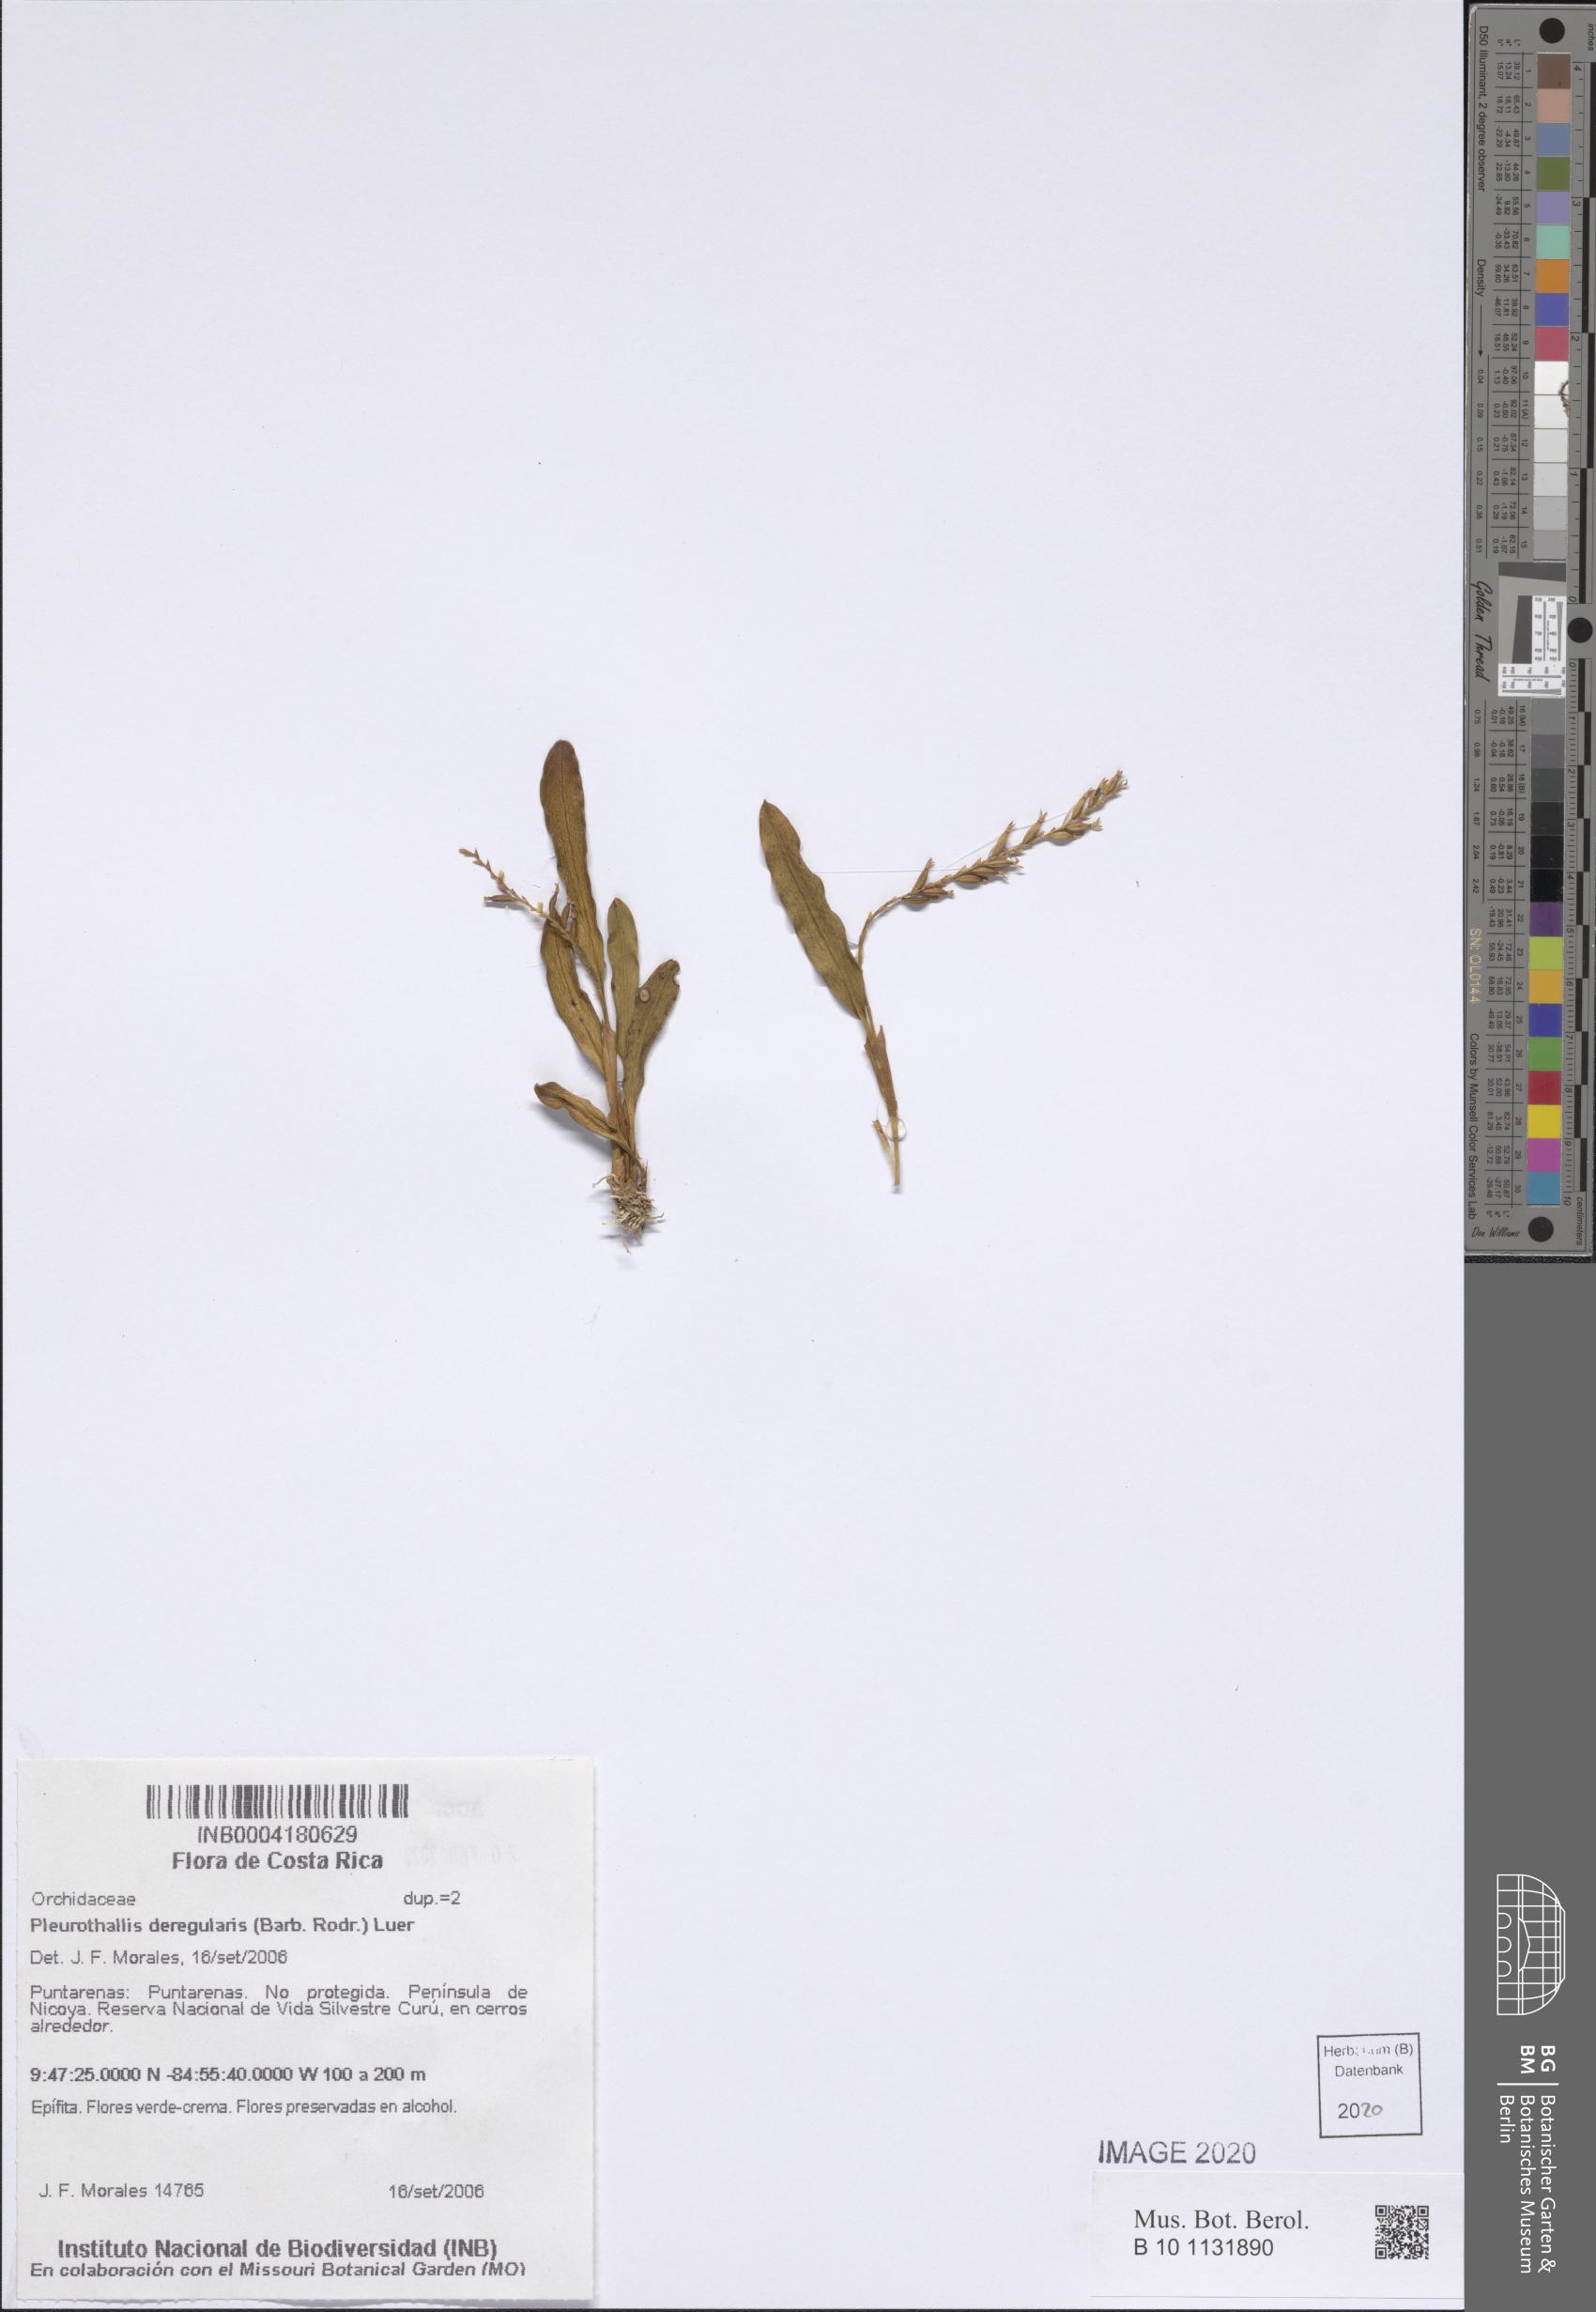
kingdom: Plantae
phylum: Tracheophyta
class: Liliopsida
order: Asparagales
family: Orchidaceae
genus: Stelis
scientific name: Stelis deregularis
